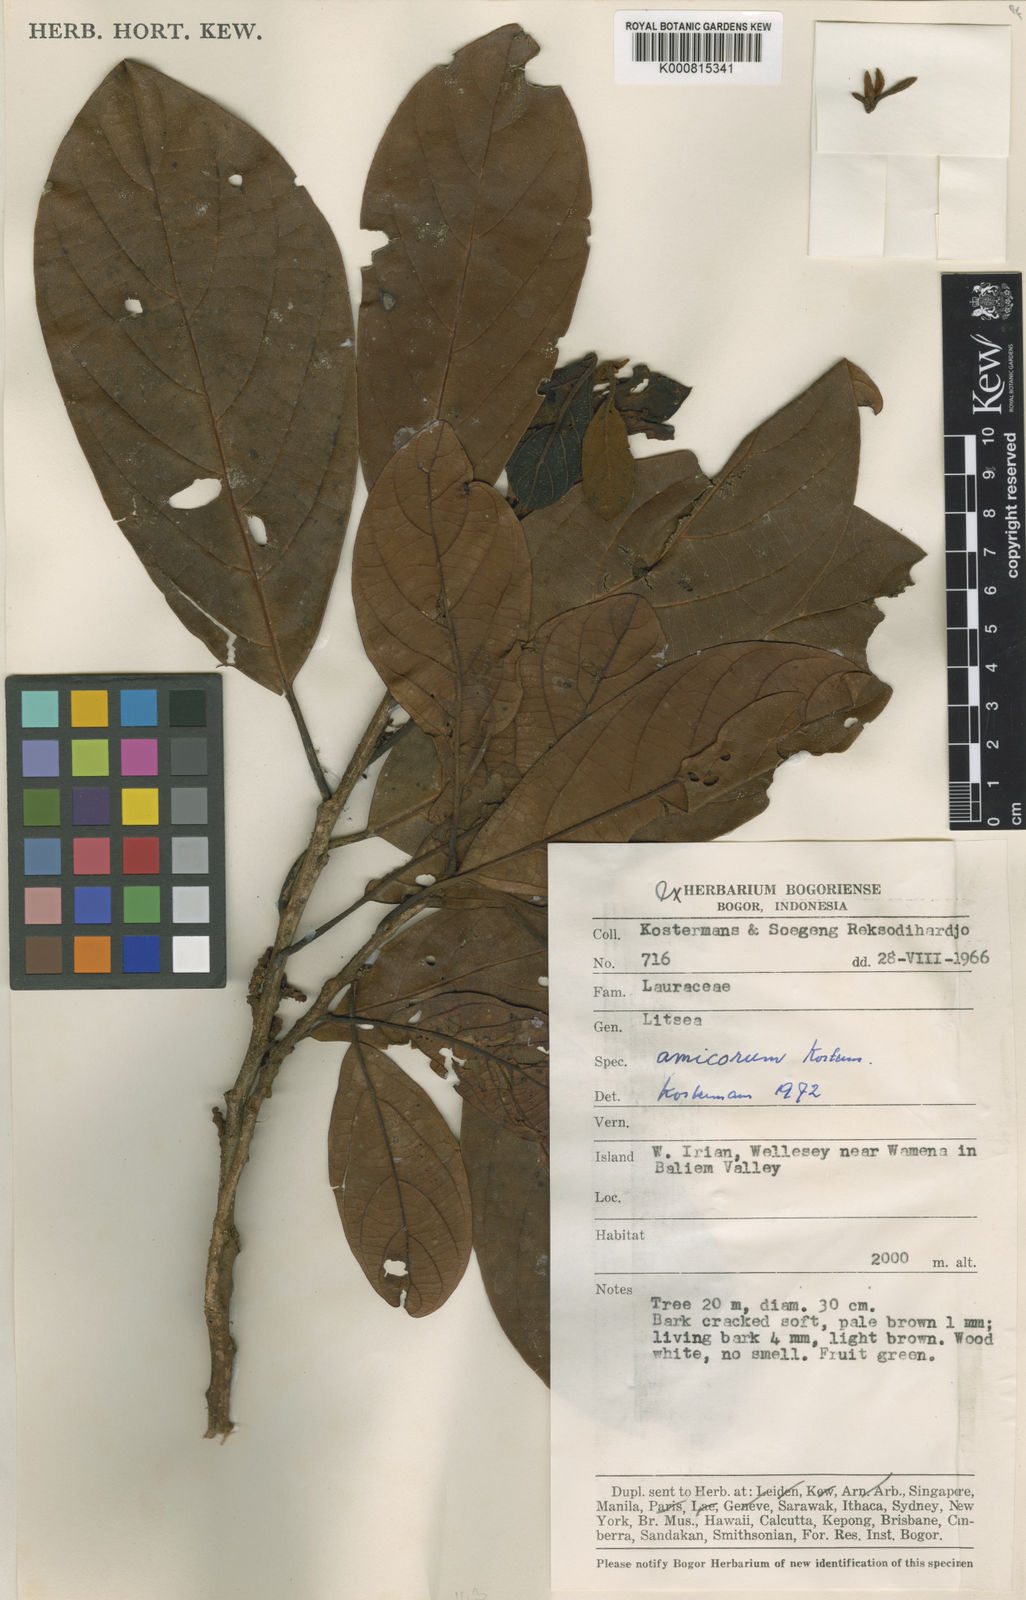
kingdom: Plantae
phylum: Tracheophyta
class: Magnoliopsida
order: Laurales
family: Lauraceae
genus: Litsea
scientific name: Litsea amicorum
